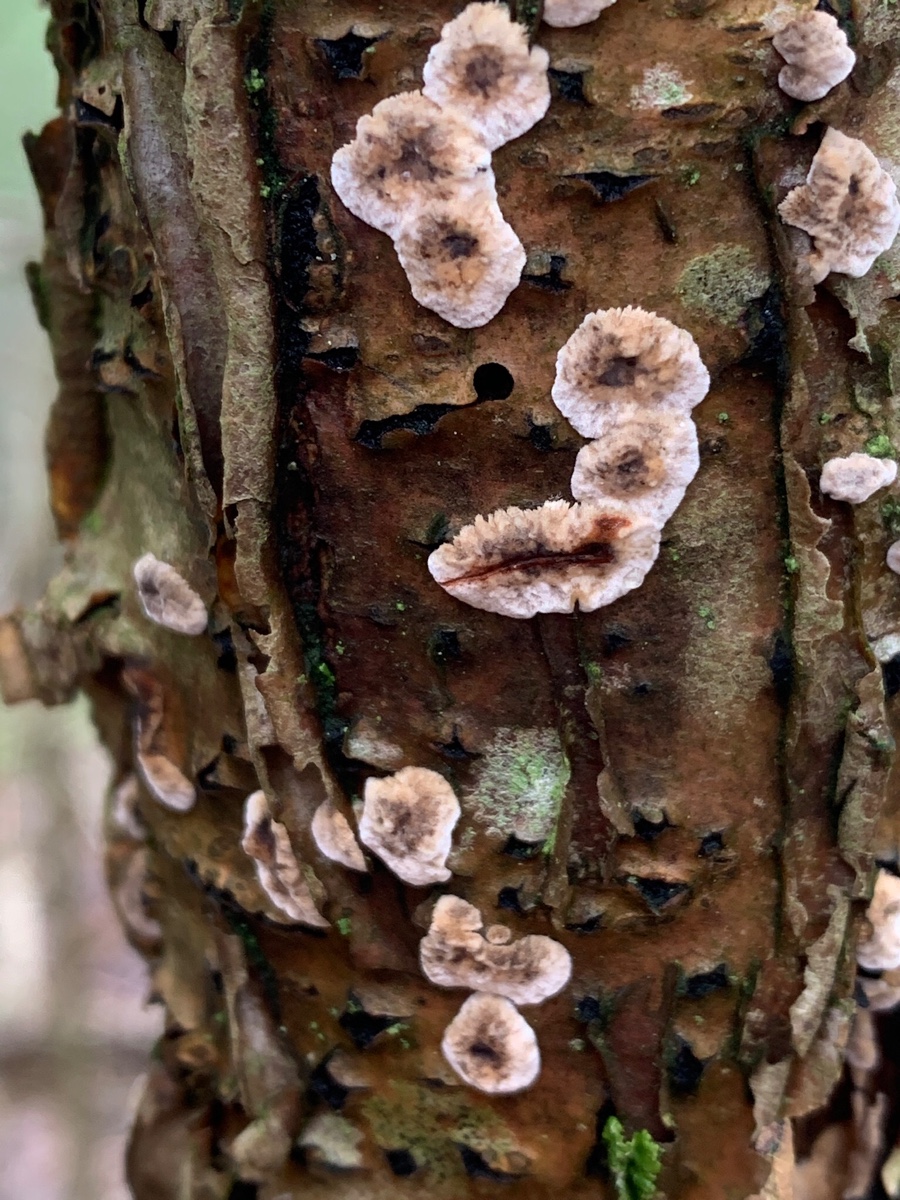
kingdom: Fungi
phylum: Basidiomycota
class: Agaricomycetes
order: Russulales
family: Stereaceae
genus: Stereum
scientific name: Stereum rugosum
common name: rynket lædersvamp
